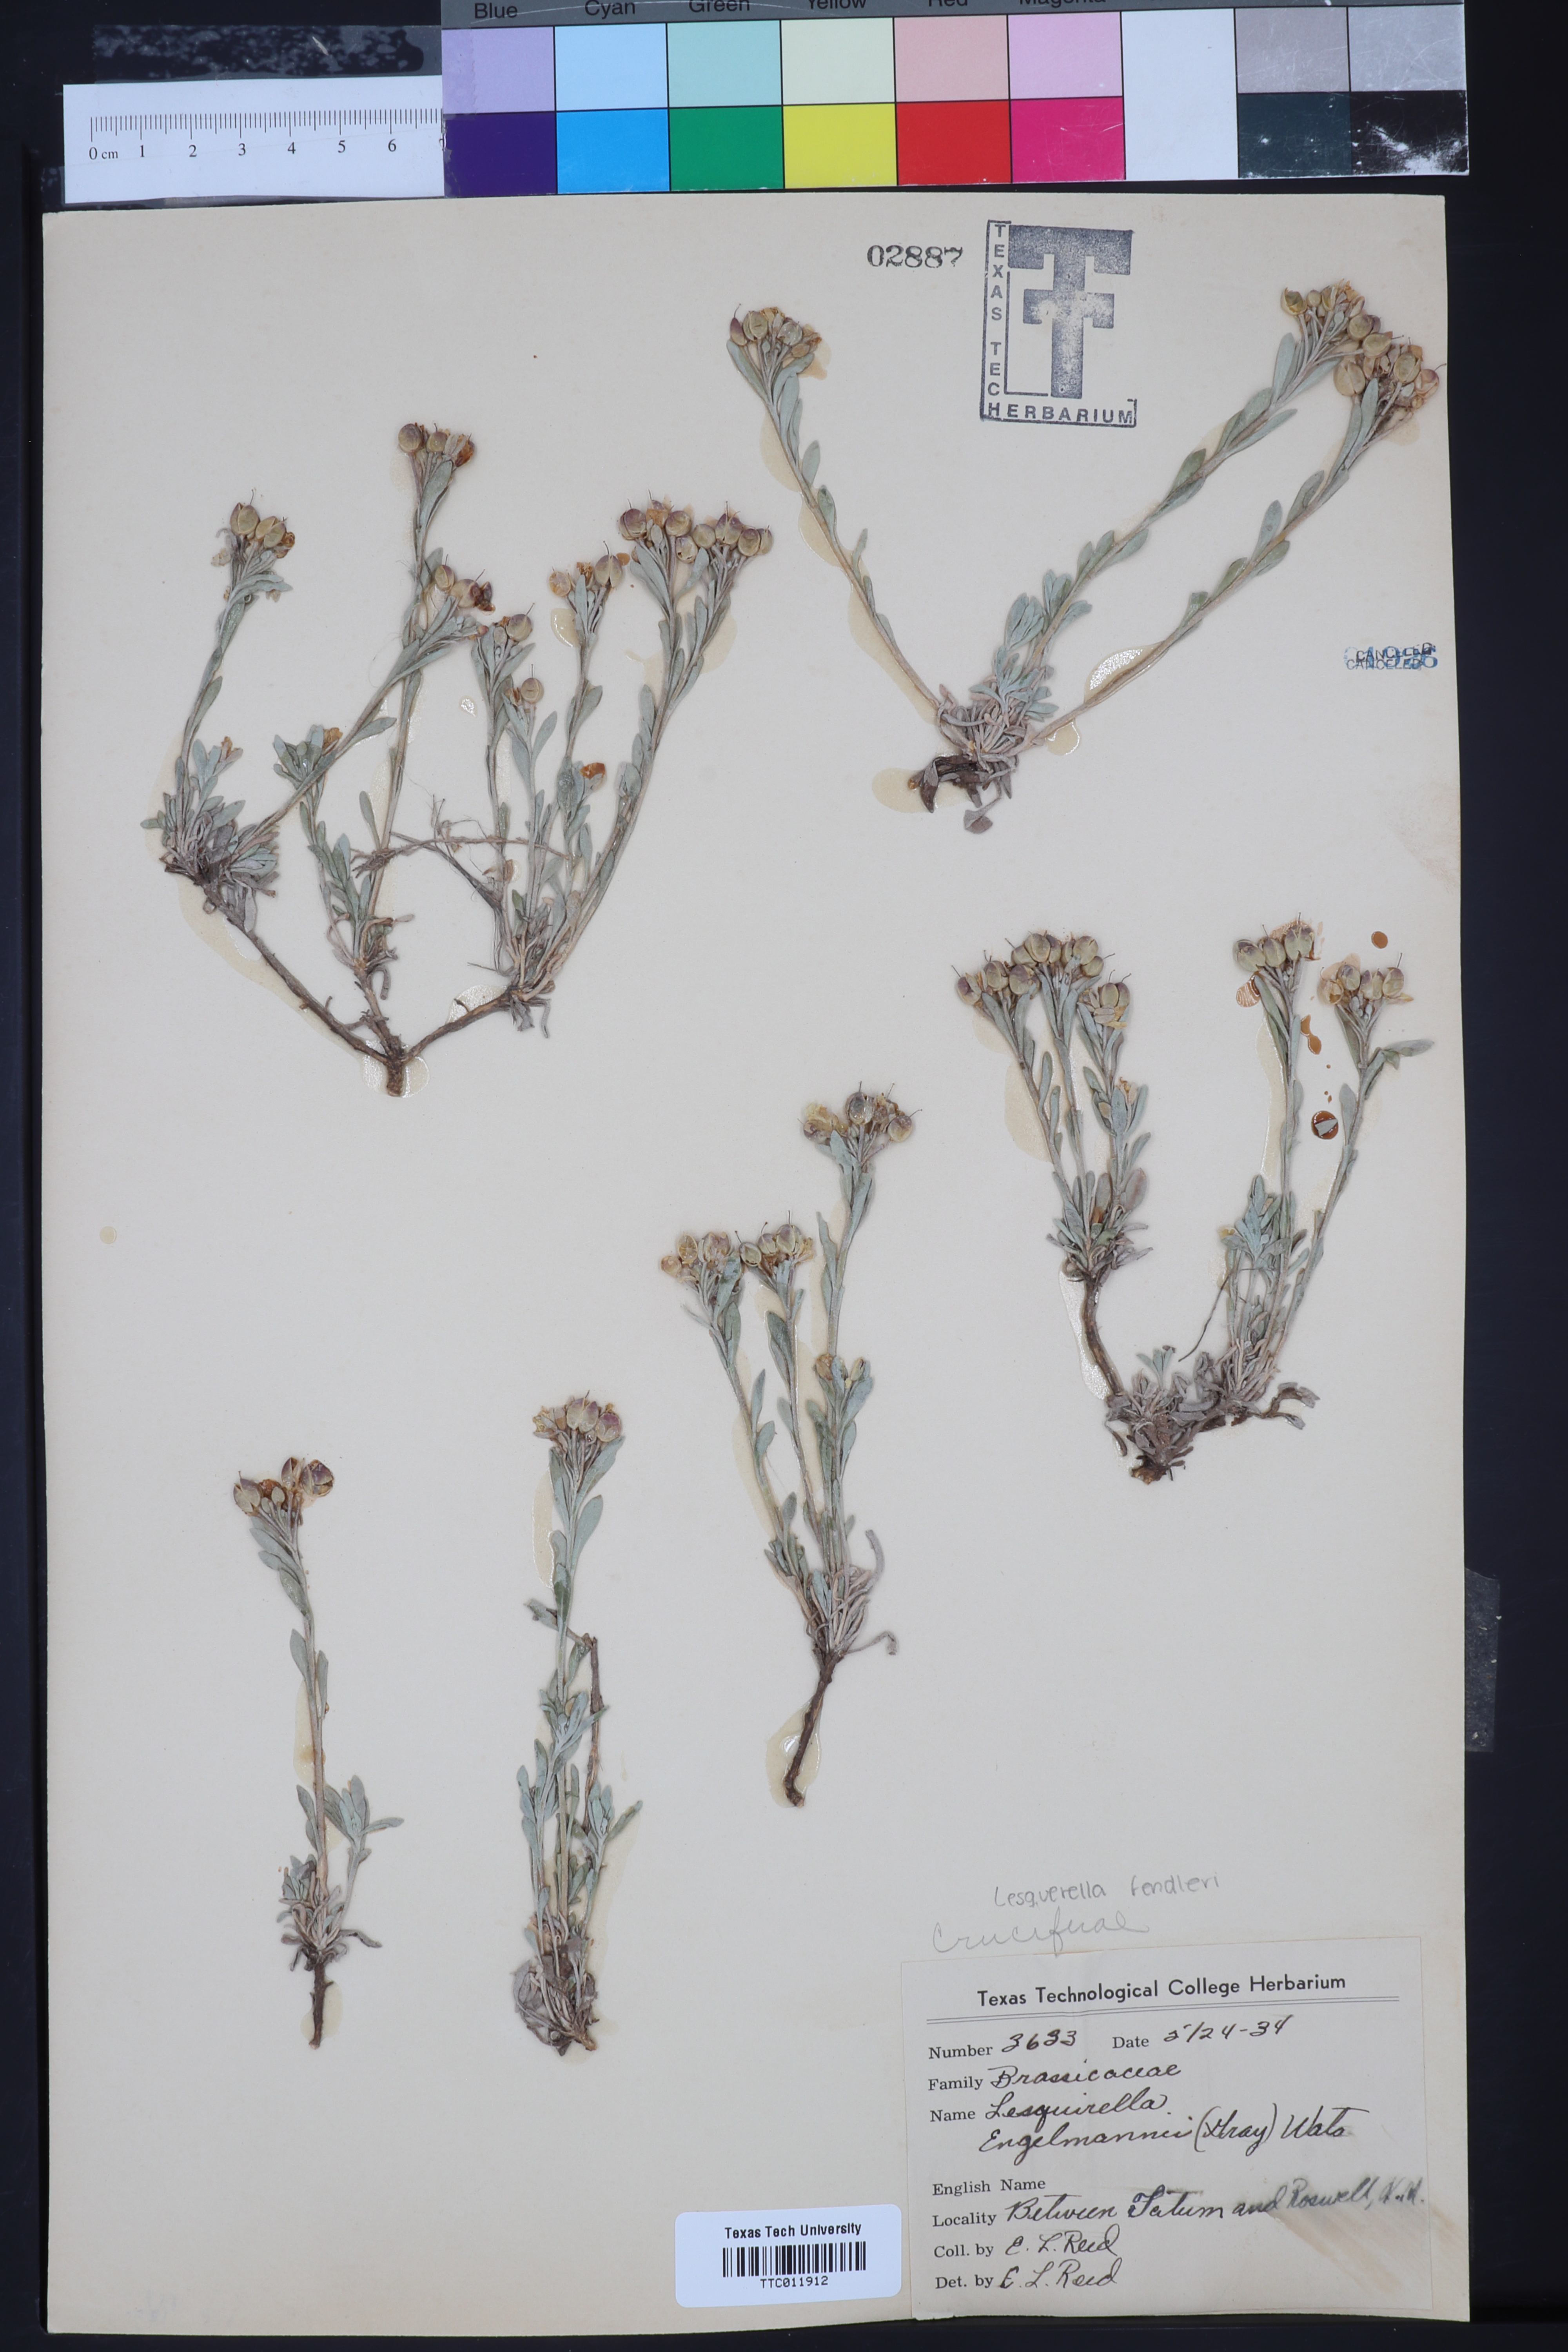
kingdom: Plantae
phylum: Tracheophyta
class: Magnoliopsida
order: Brassicales
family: Brassicaceae
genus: Physaria
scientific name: Physaria engelmannii
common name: Engelmann's bladderpod
